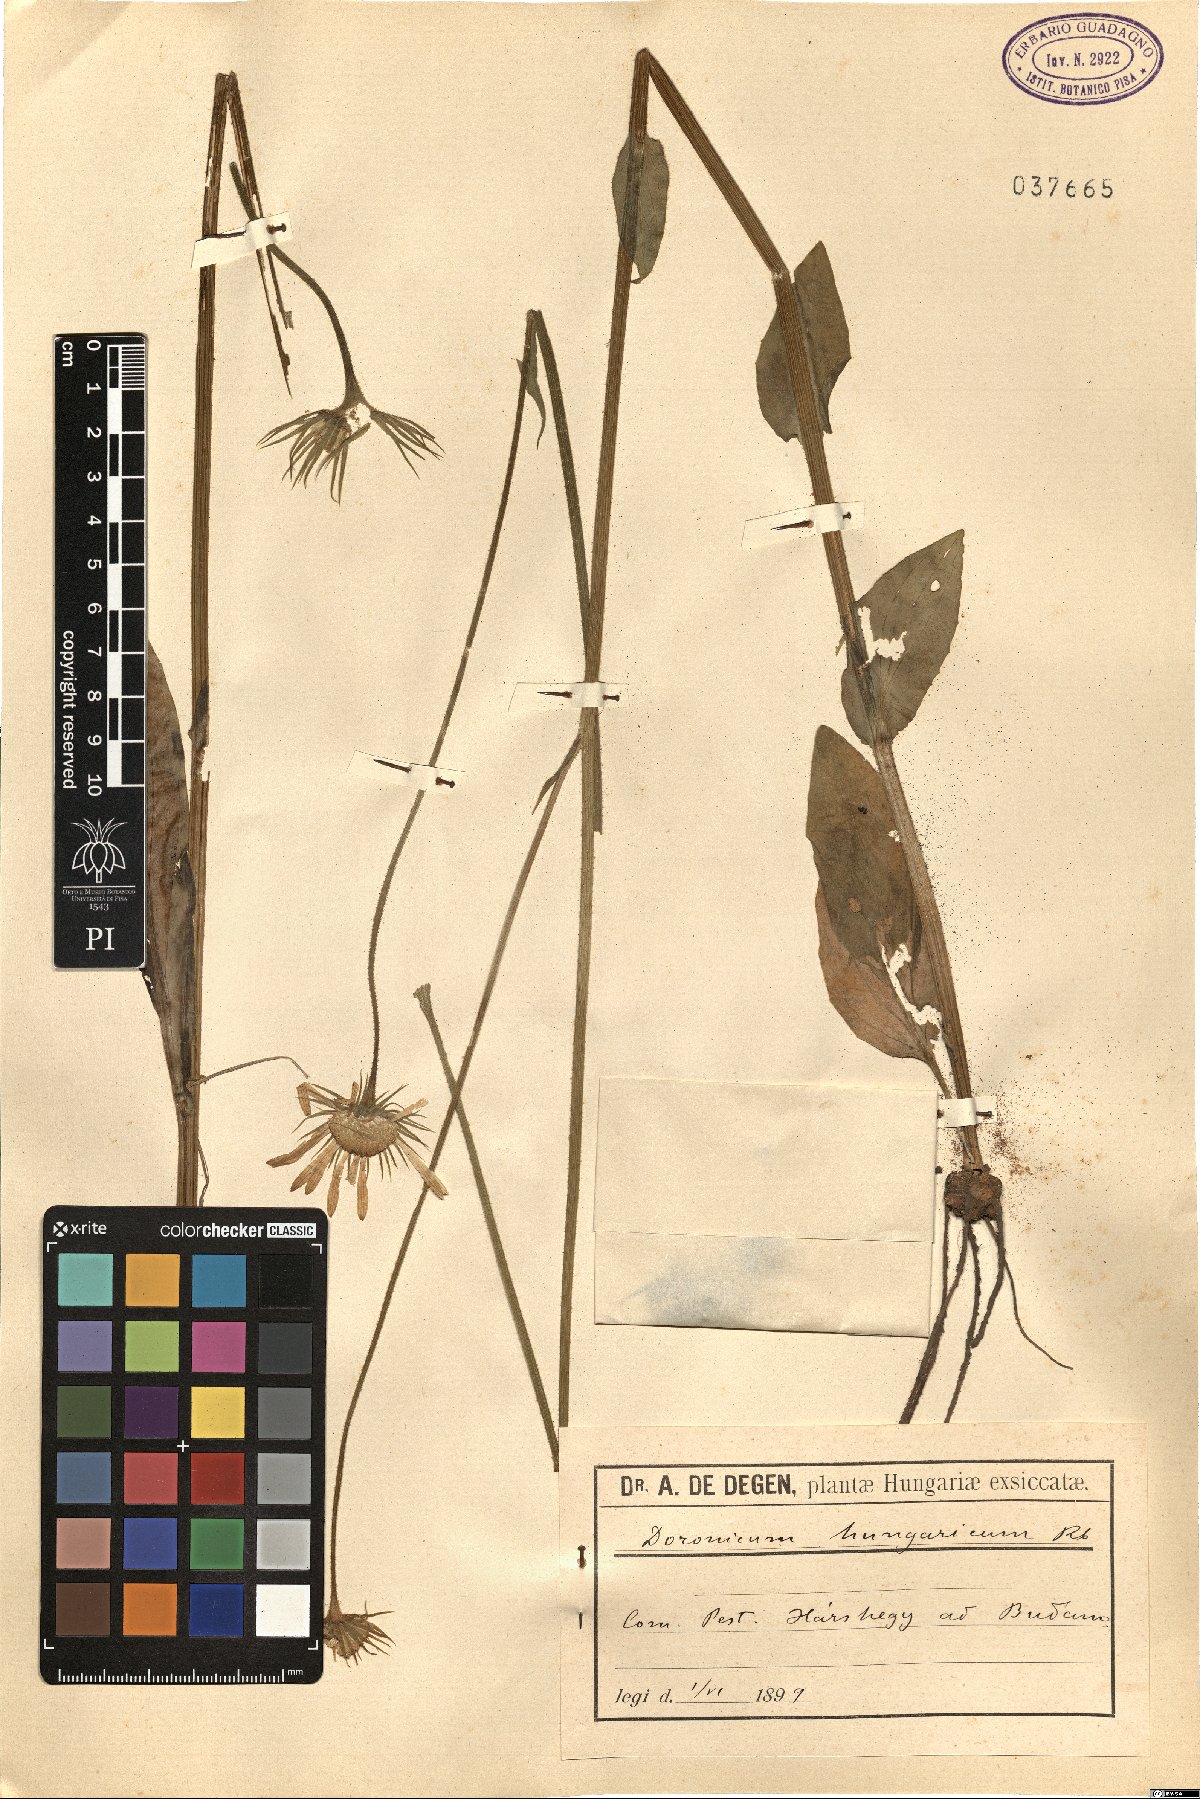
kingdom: Plantae
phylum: Tracheophyta
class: Magnoliopsida
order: Asterales
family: Asteraceae
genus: Doronicum
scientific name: Doronicum hungaricum
